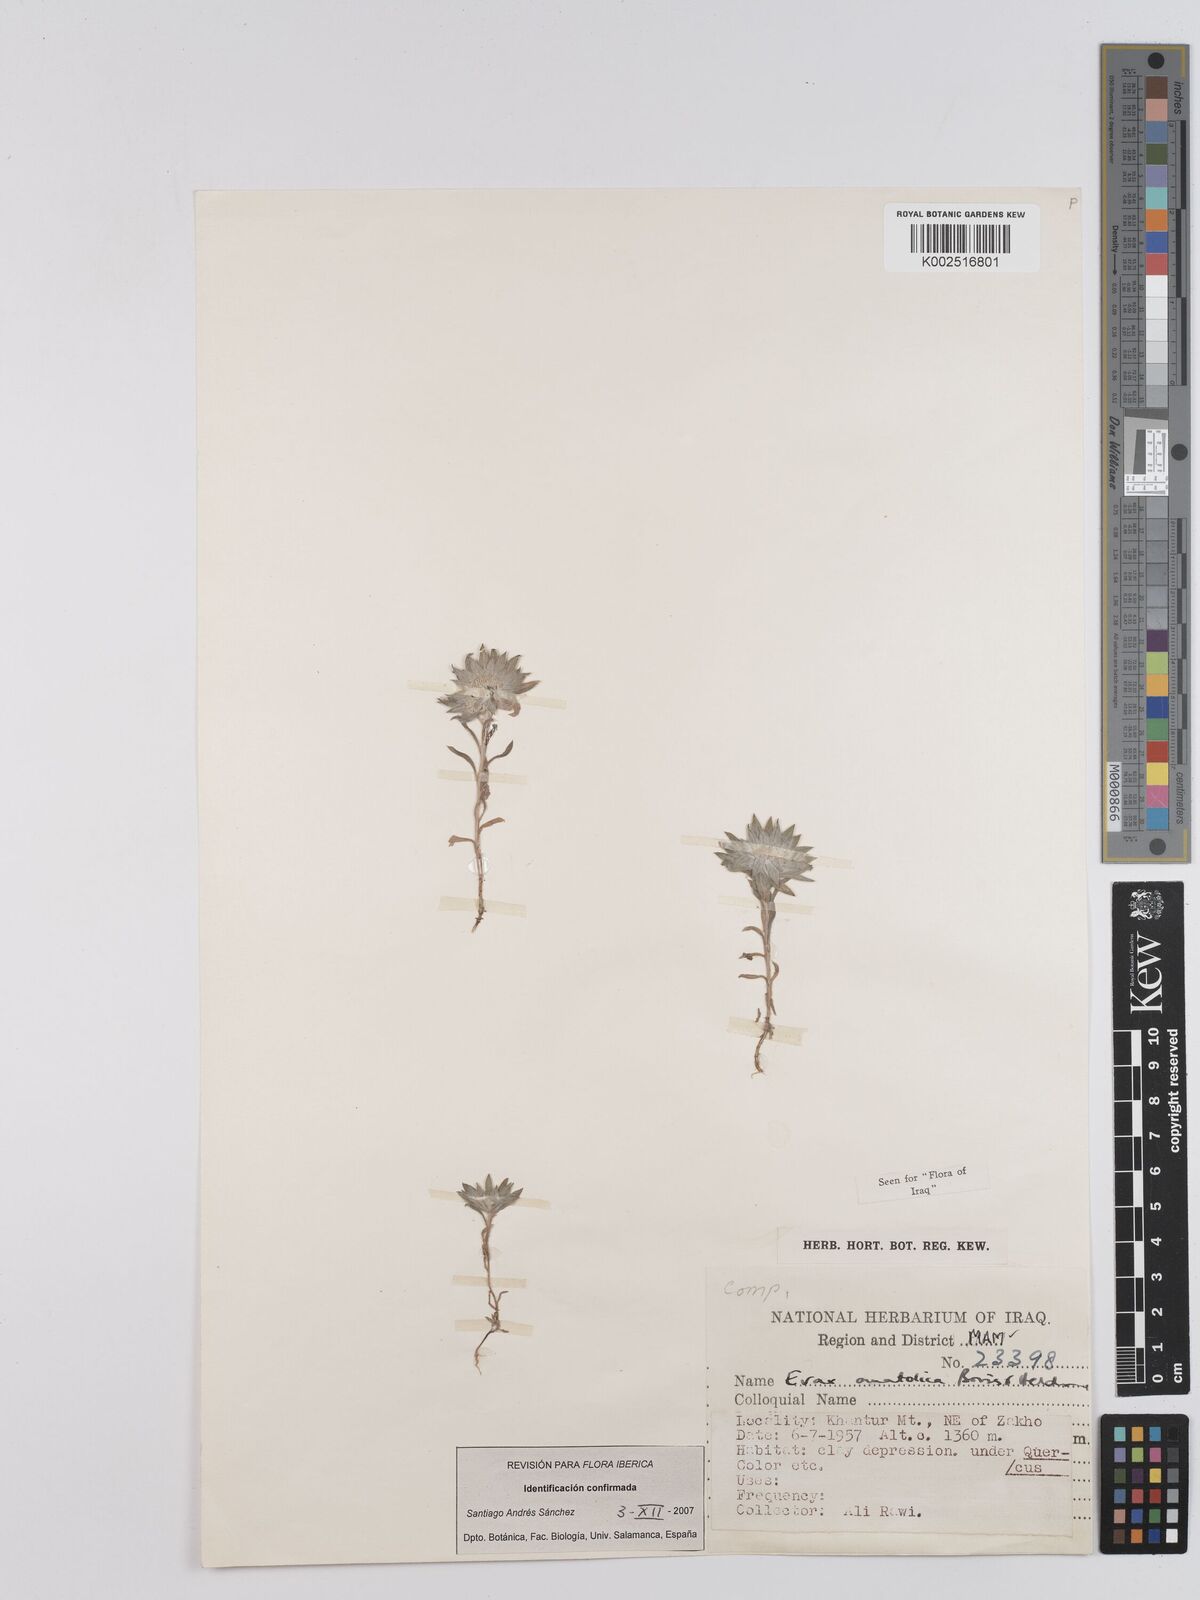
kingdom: Plantae
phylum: Tracheophyta
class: Magnoliopsida
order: Asterales
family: Asteraceae
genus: Filago
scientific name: Filago anatolica
